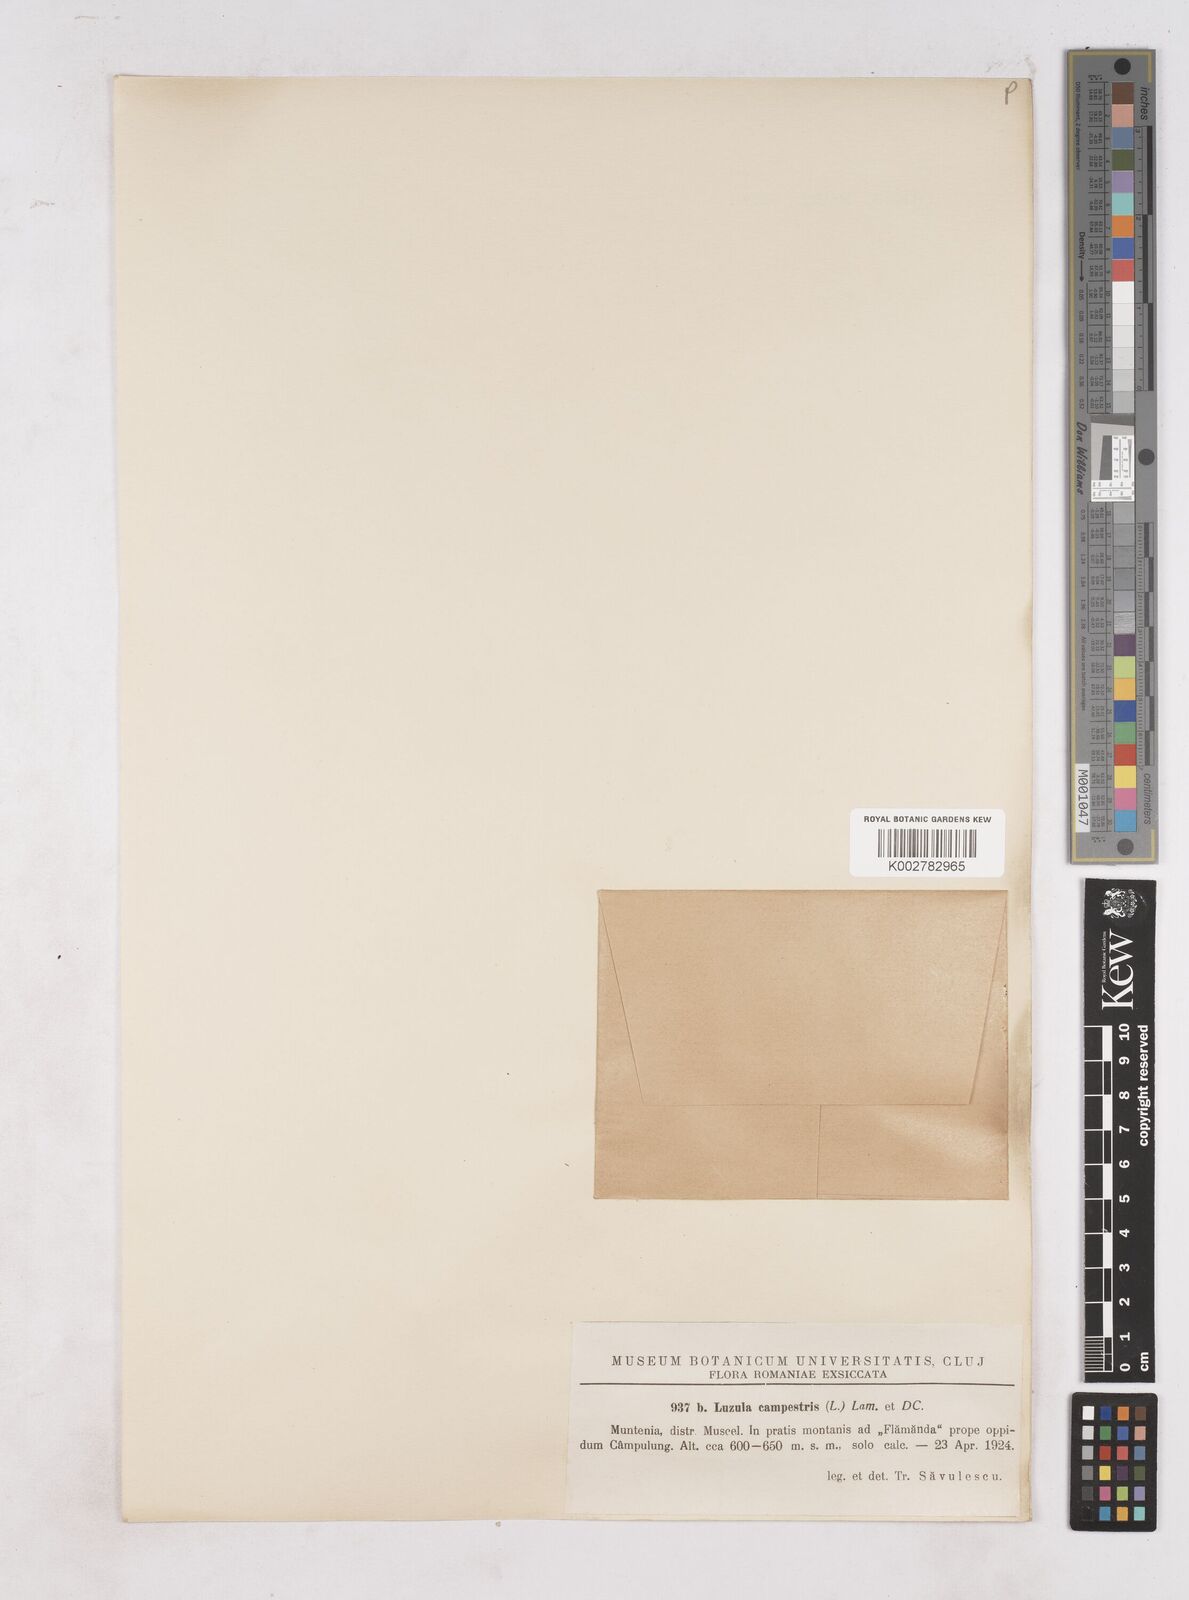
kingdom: Plantae
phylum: Tracheophyta
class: Liliopsida
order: Poales
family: Juncaceae
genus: Luzula
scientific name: Luzula campestris
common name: Field wood-rush
